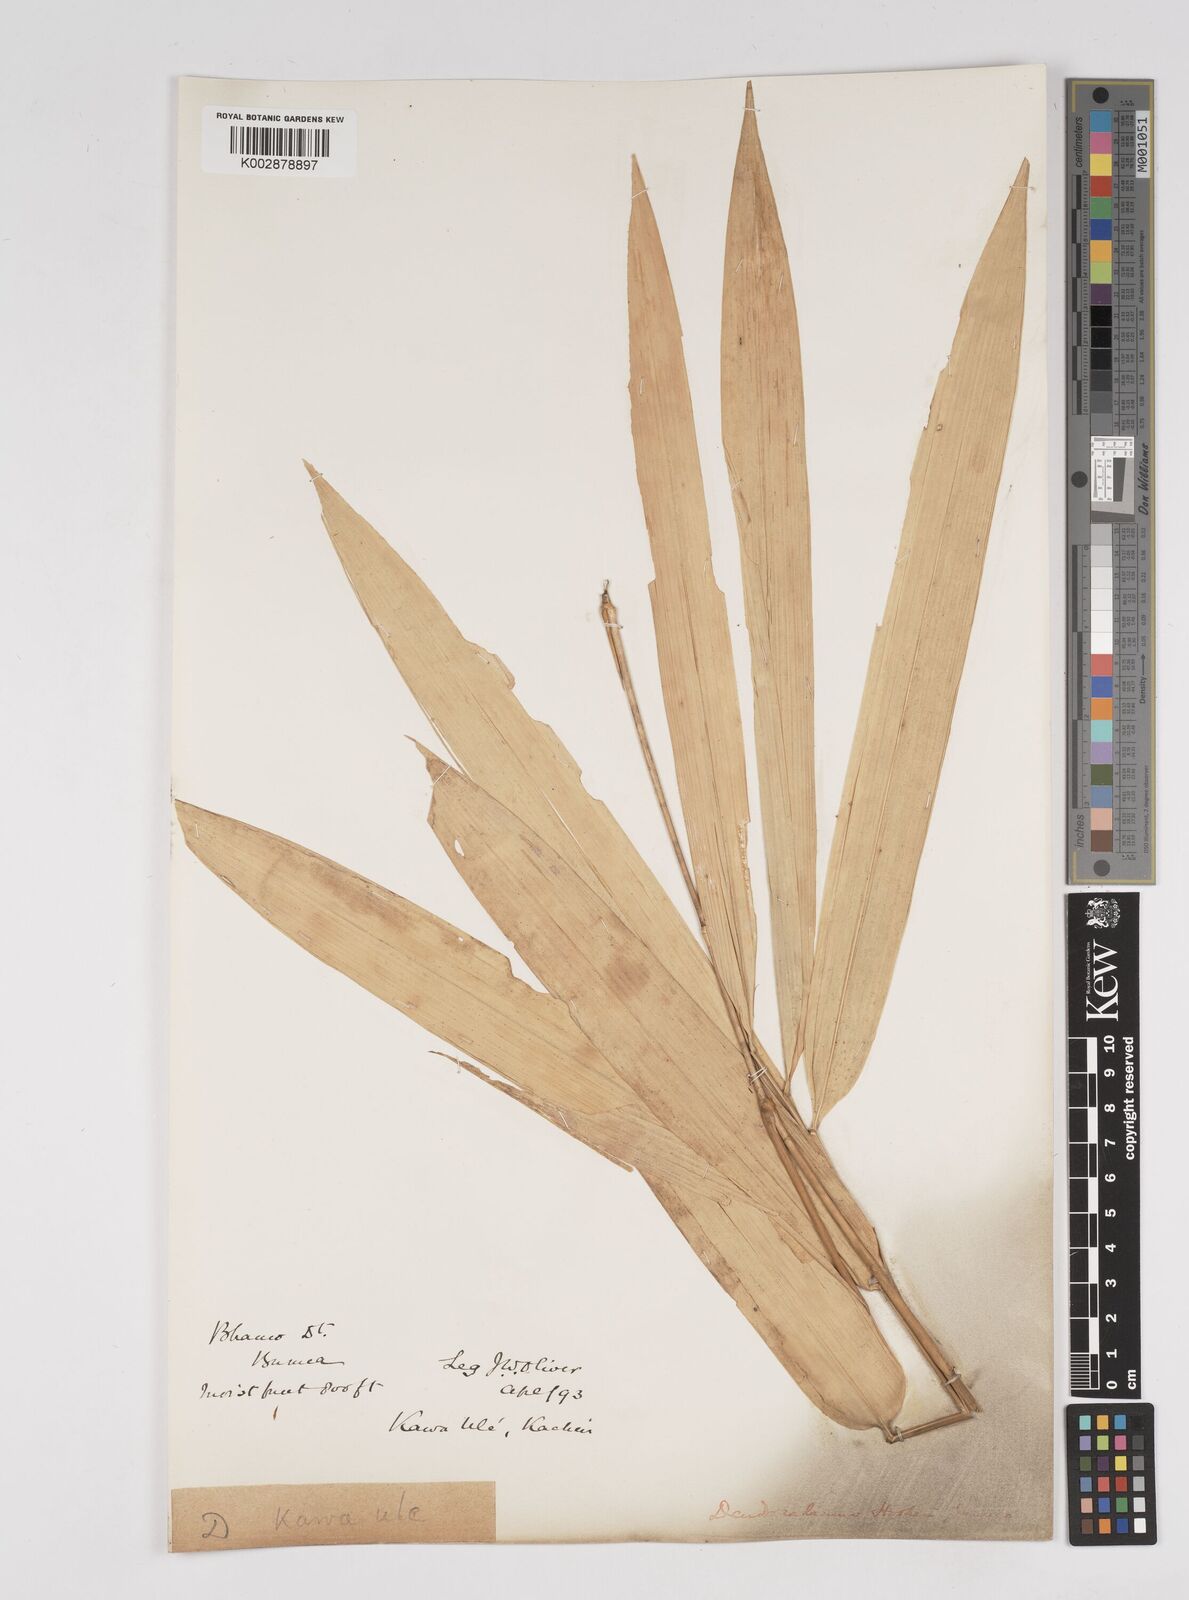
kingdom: Plantae
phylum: Tracheophyta
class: Liliopsida
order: Poales
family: Poaceae
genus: Dendrocalamus
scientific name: Dendrocalamus hookeri
